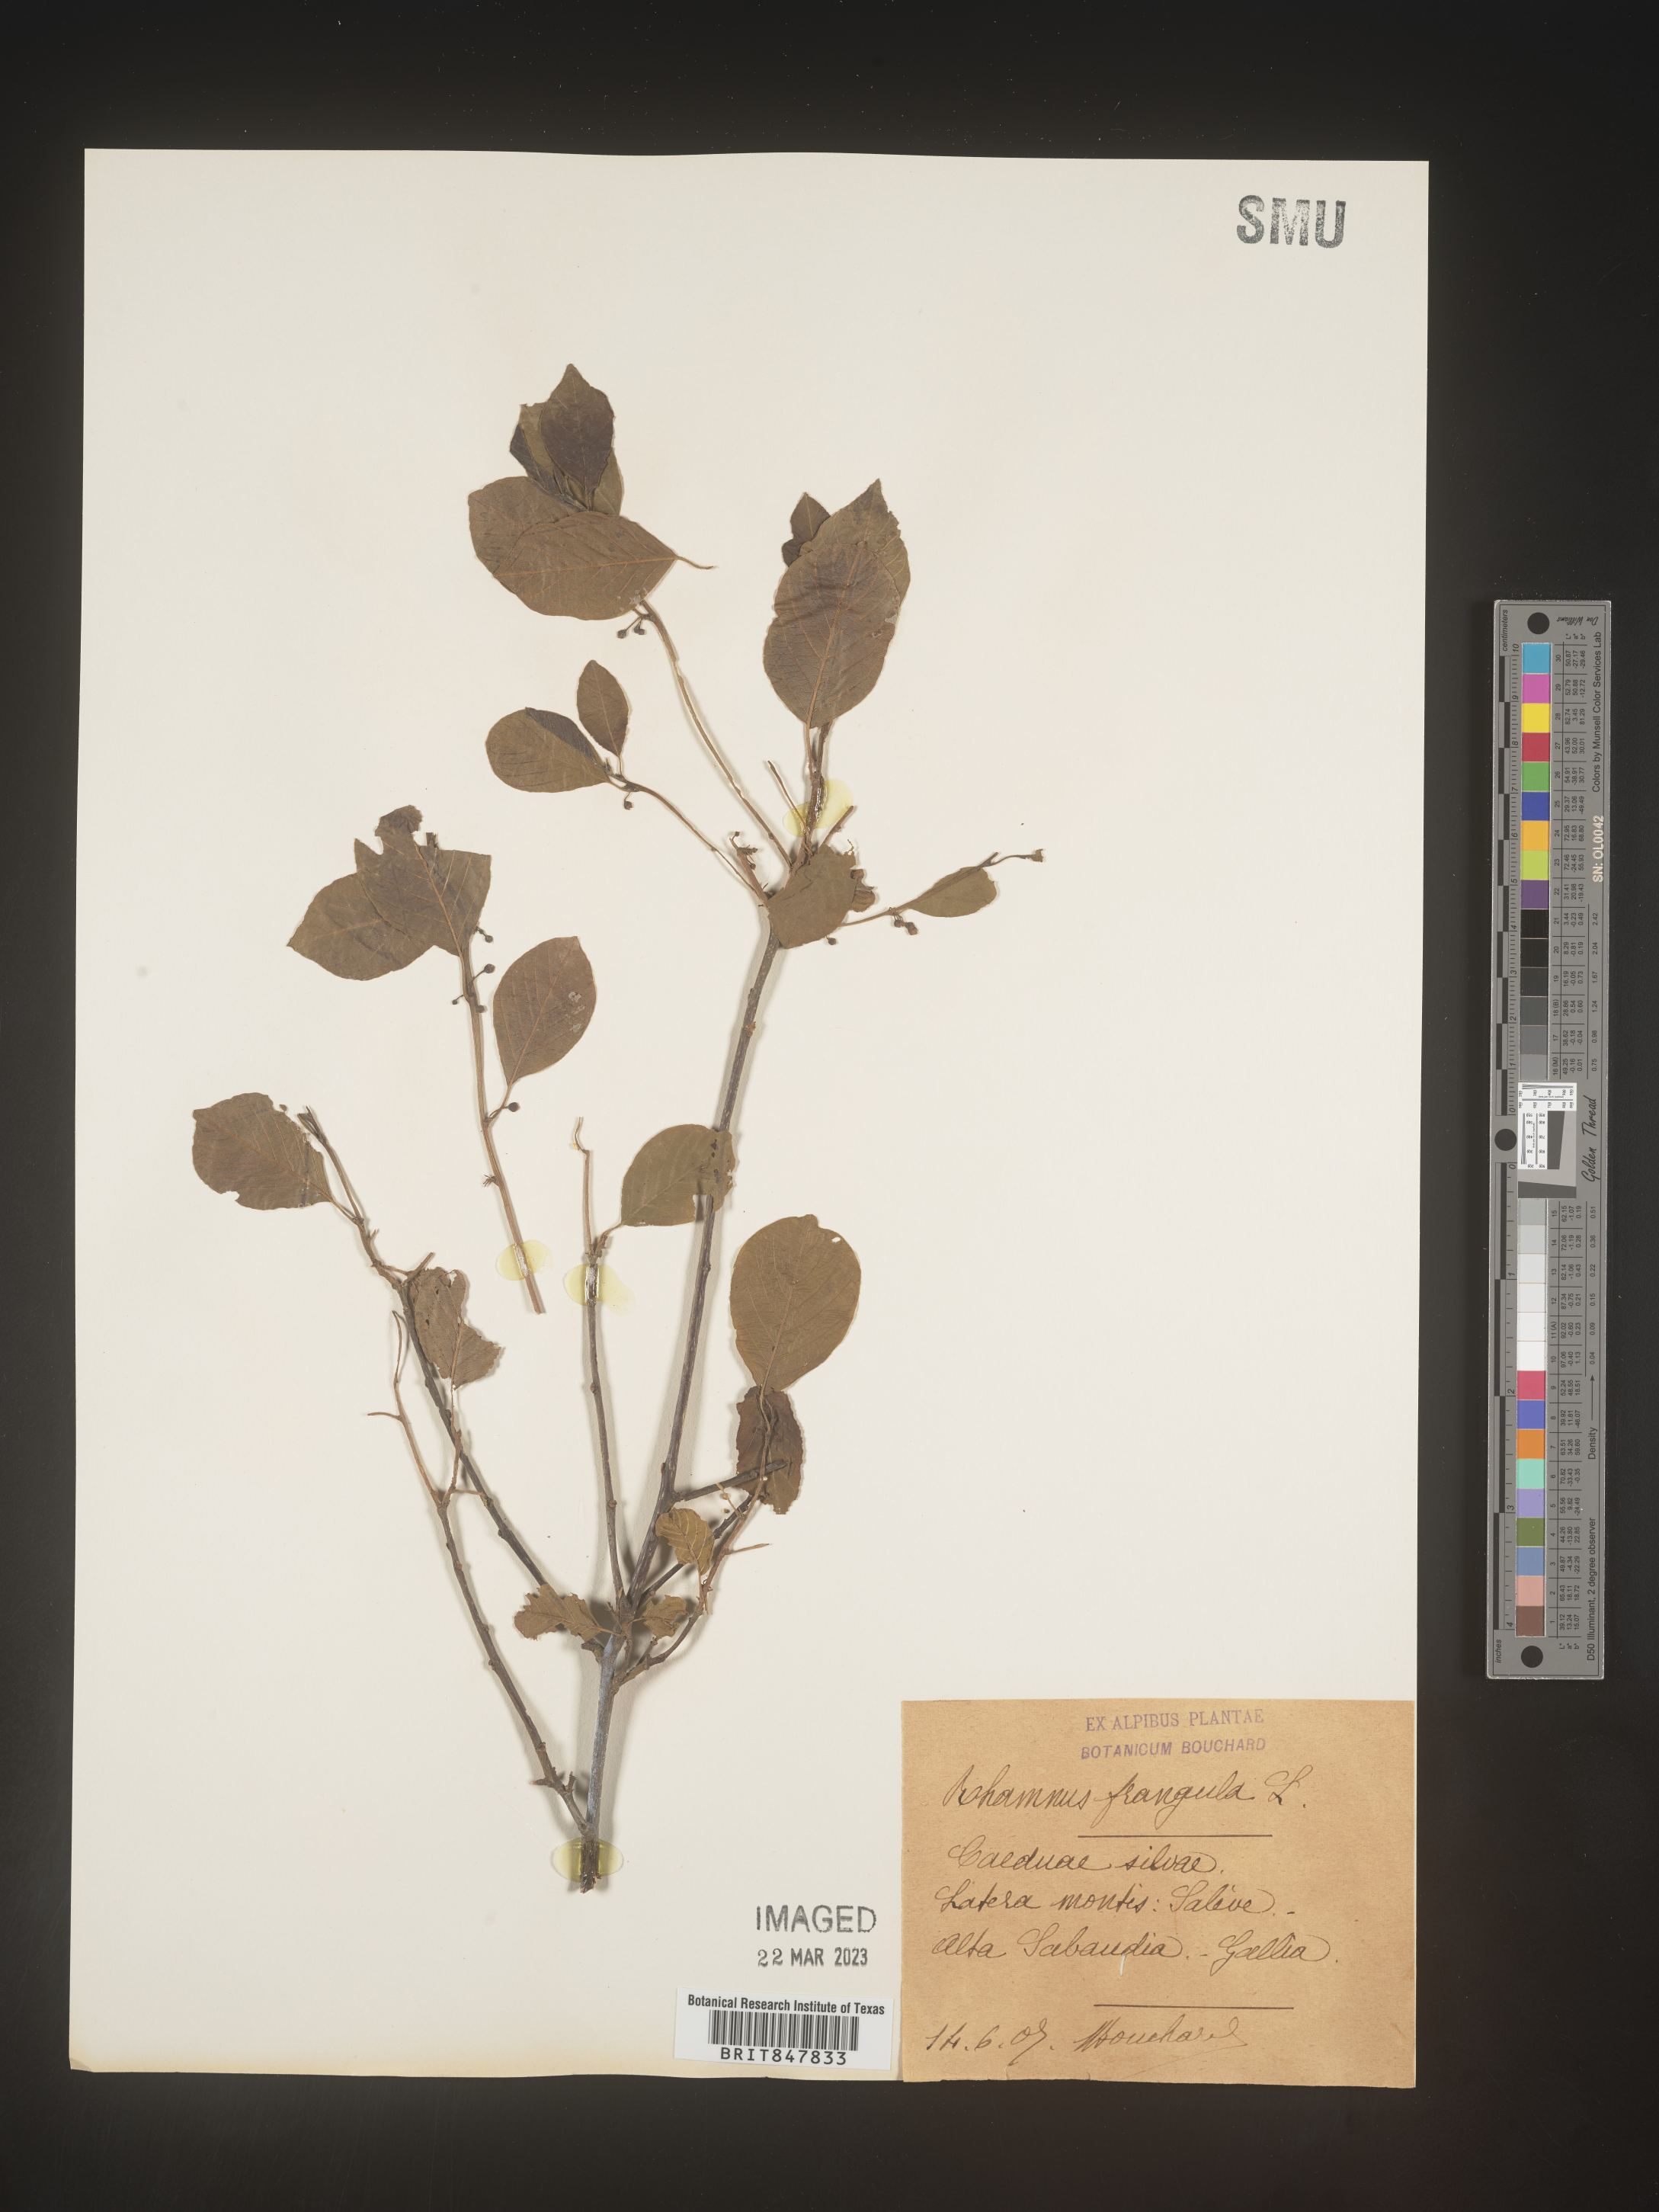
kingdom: Plantae
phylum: Tracheophyta
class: Magnoliopsida
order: Rosales
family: Rhamnaceae
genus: Rhamnus
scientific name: Rhamnus
